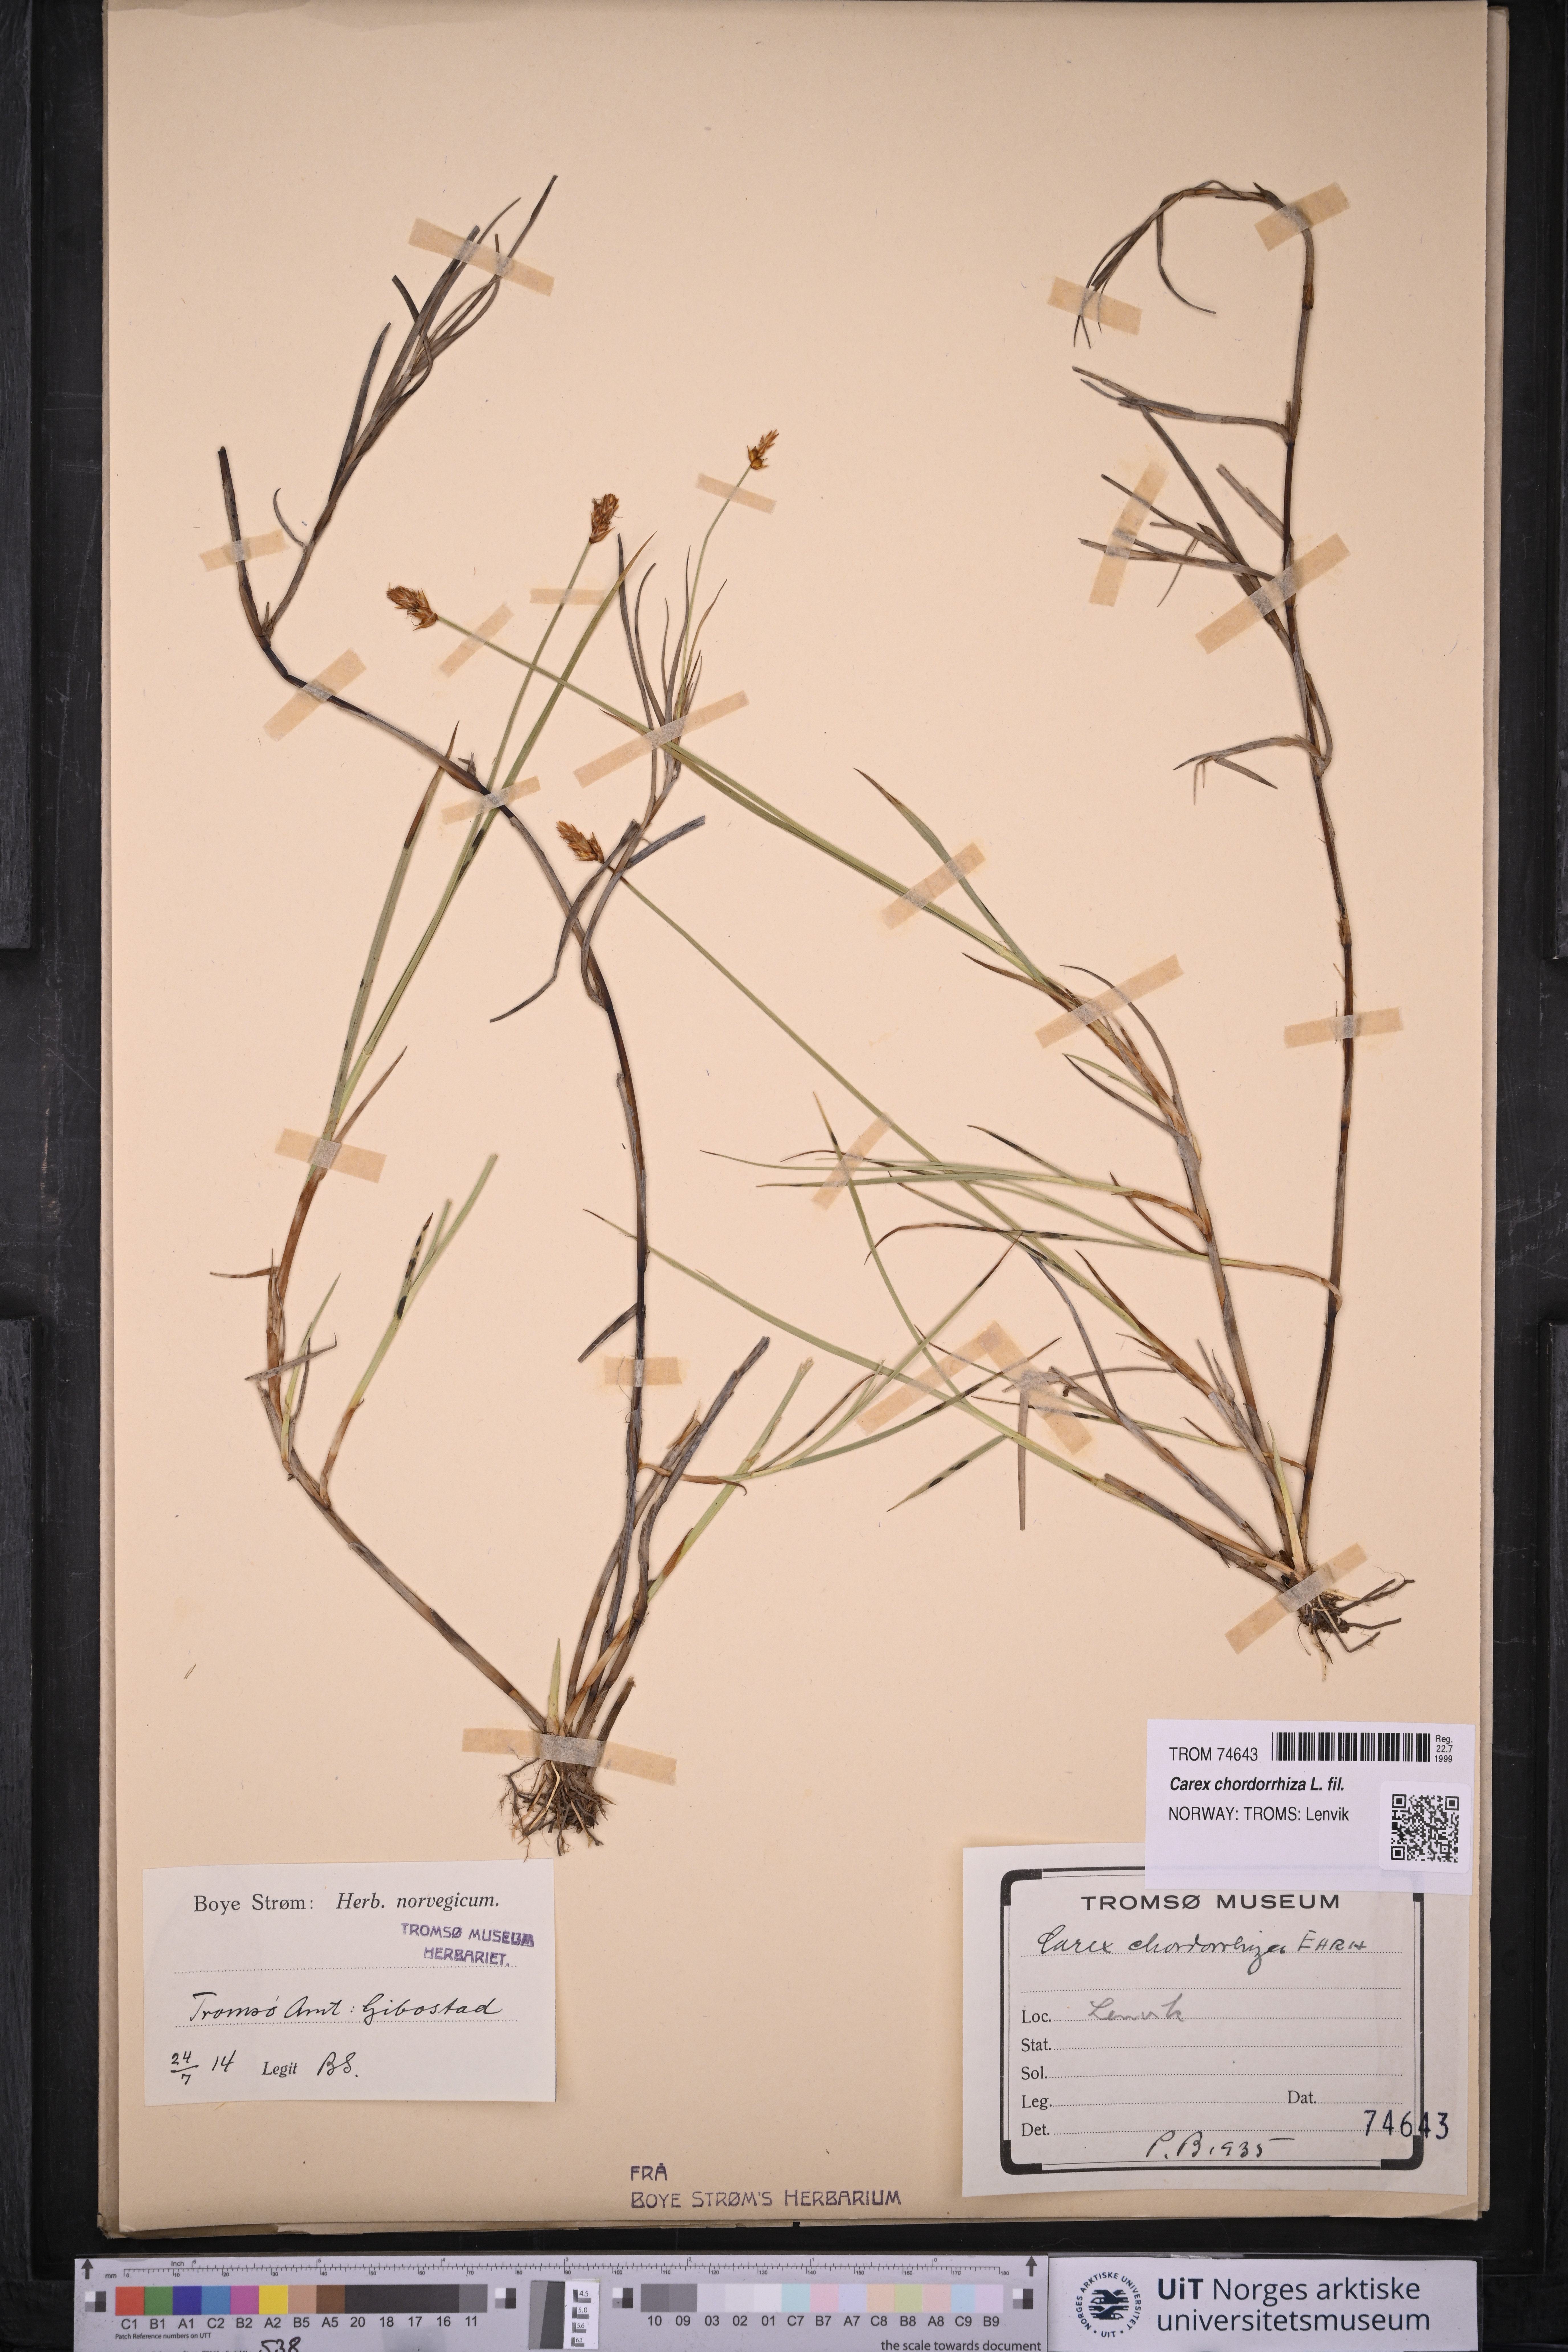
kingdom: Plantae
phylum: Tracheophyta
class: Liliopsida
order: Poales
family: Cyperaceae
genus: Carex
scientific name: Carex chordorrhiza
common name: String sedge
